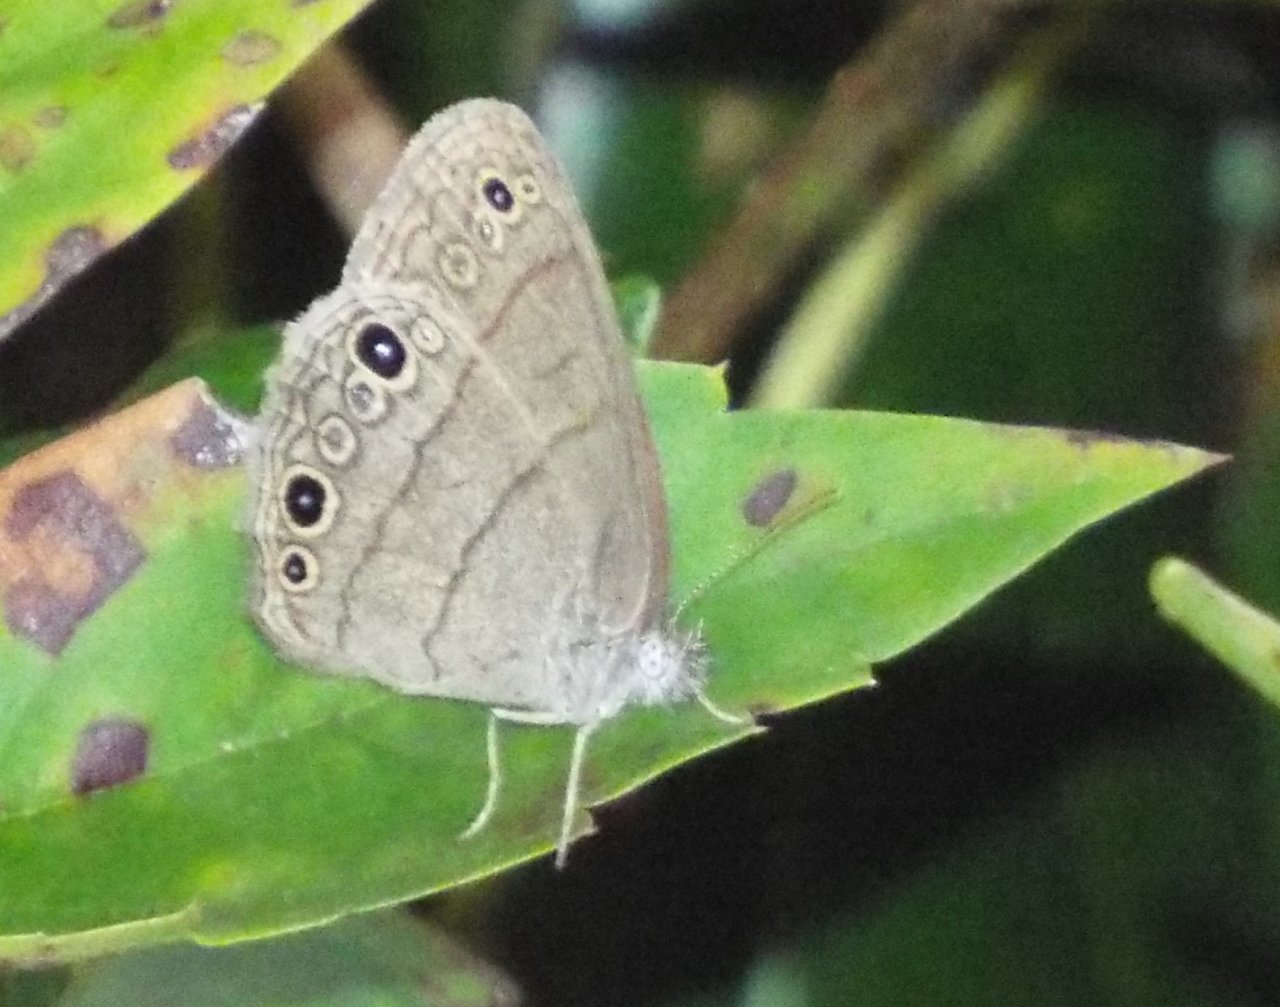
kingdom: Animalia
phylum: Arthropoda
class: Insecta
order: Lepidoptera
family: Nymphalidae
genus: Hermeuptychia
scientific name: Hermeuptychia
